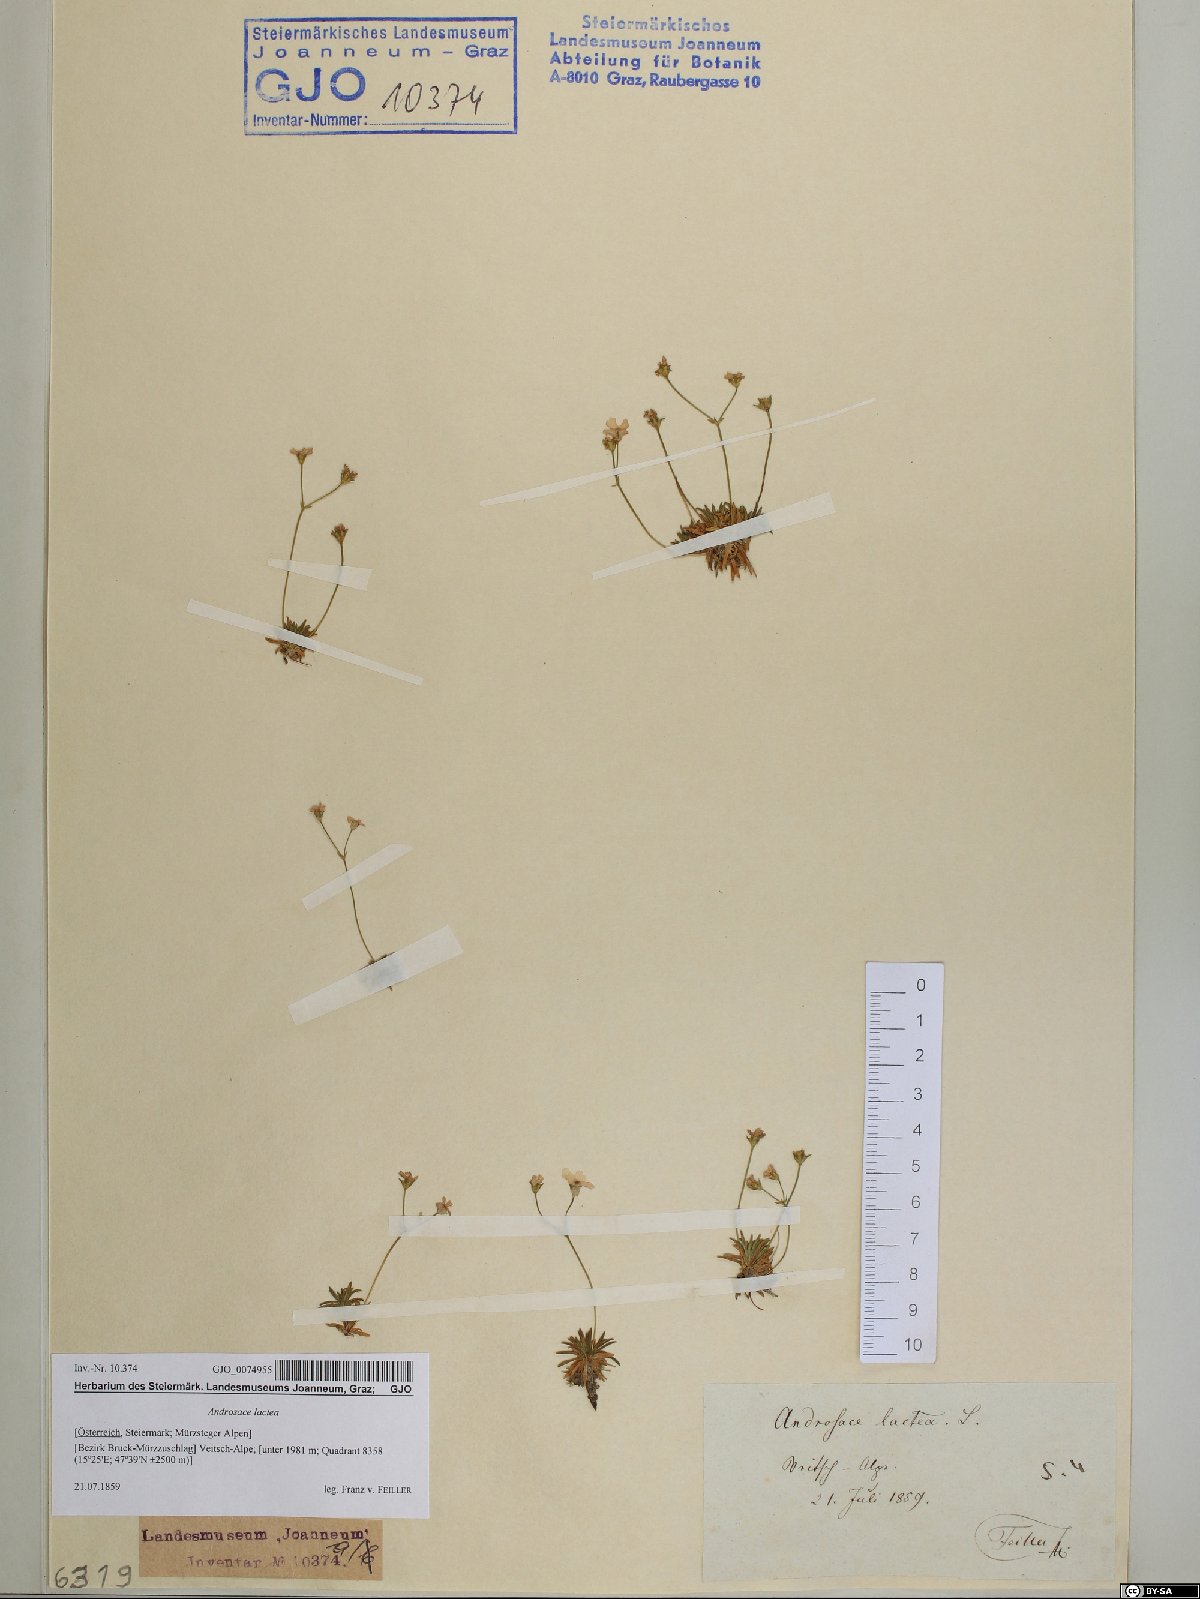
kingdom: Plantae
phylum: Tracheophyta
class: Magnoliopsida
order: Ericales
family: Primulaceae
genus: Androsace
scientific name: Androsace lactea
